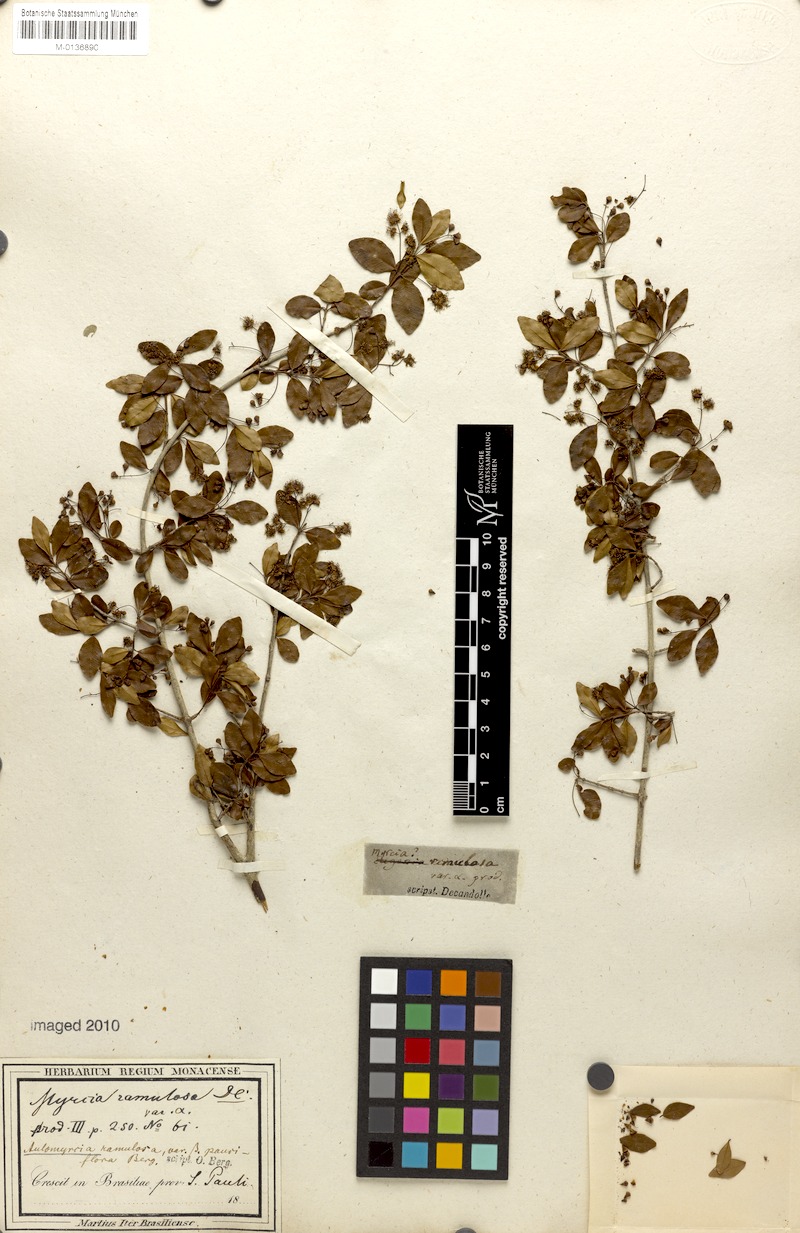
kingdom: Plantae
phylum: Tracheophyta
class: Magnoliopsida
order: Myrtales
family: Myrtaceae
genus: Myrcia
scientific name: Myrcia selloi
